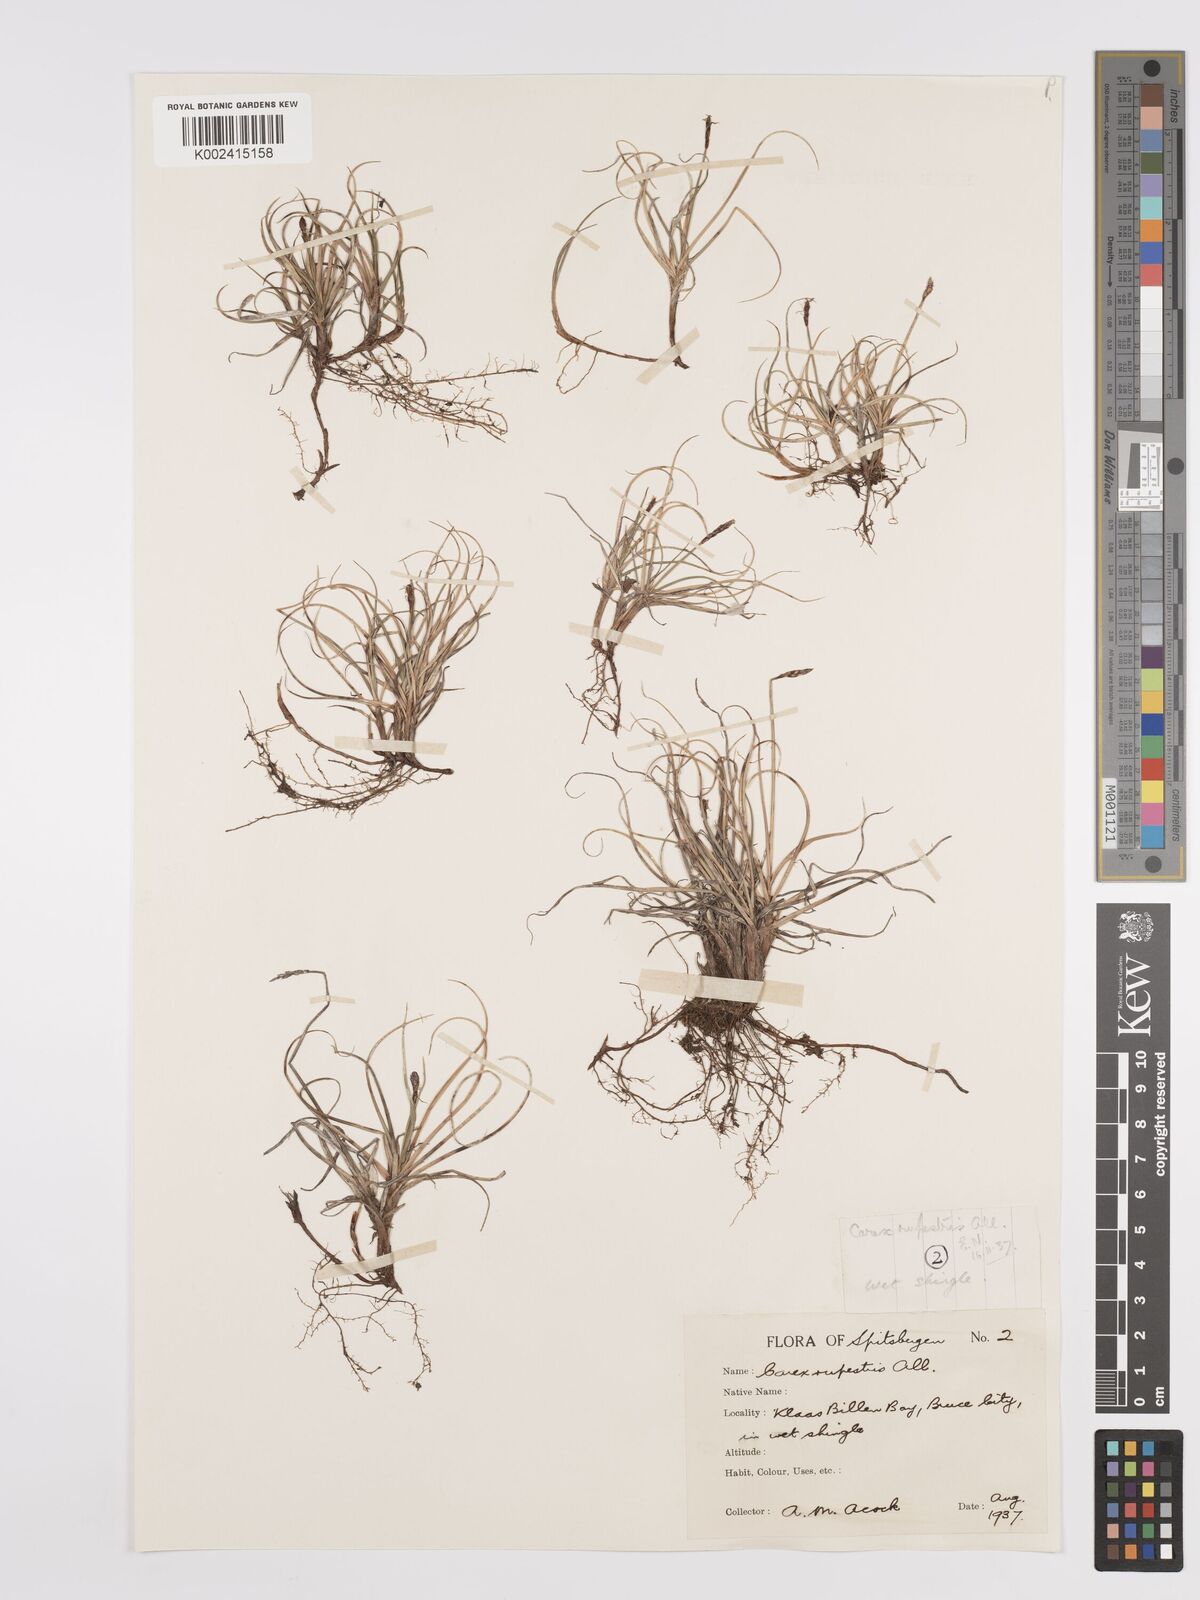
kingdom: Plantae
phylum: Tracheophyta
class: Liliopsida
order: Poales
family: Cyperaceae
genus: Carex
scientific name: Carex rupestris
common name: Rock sedge
